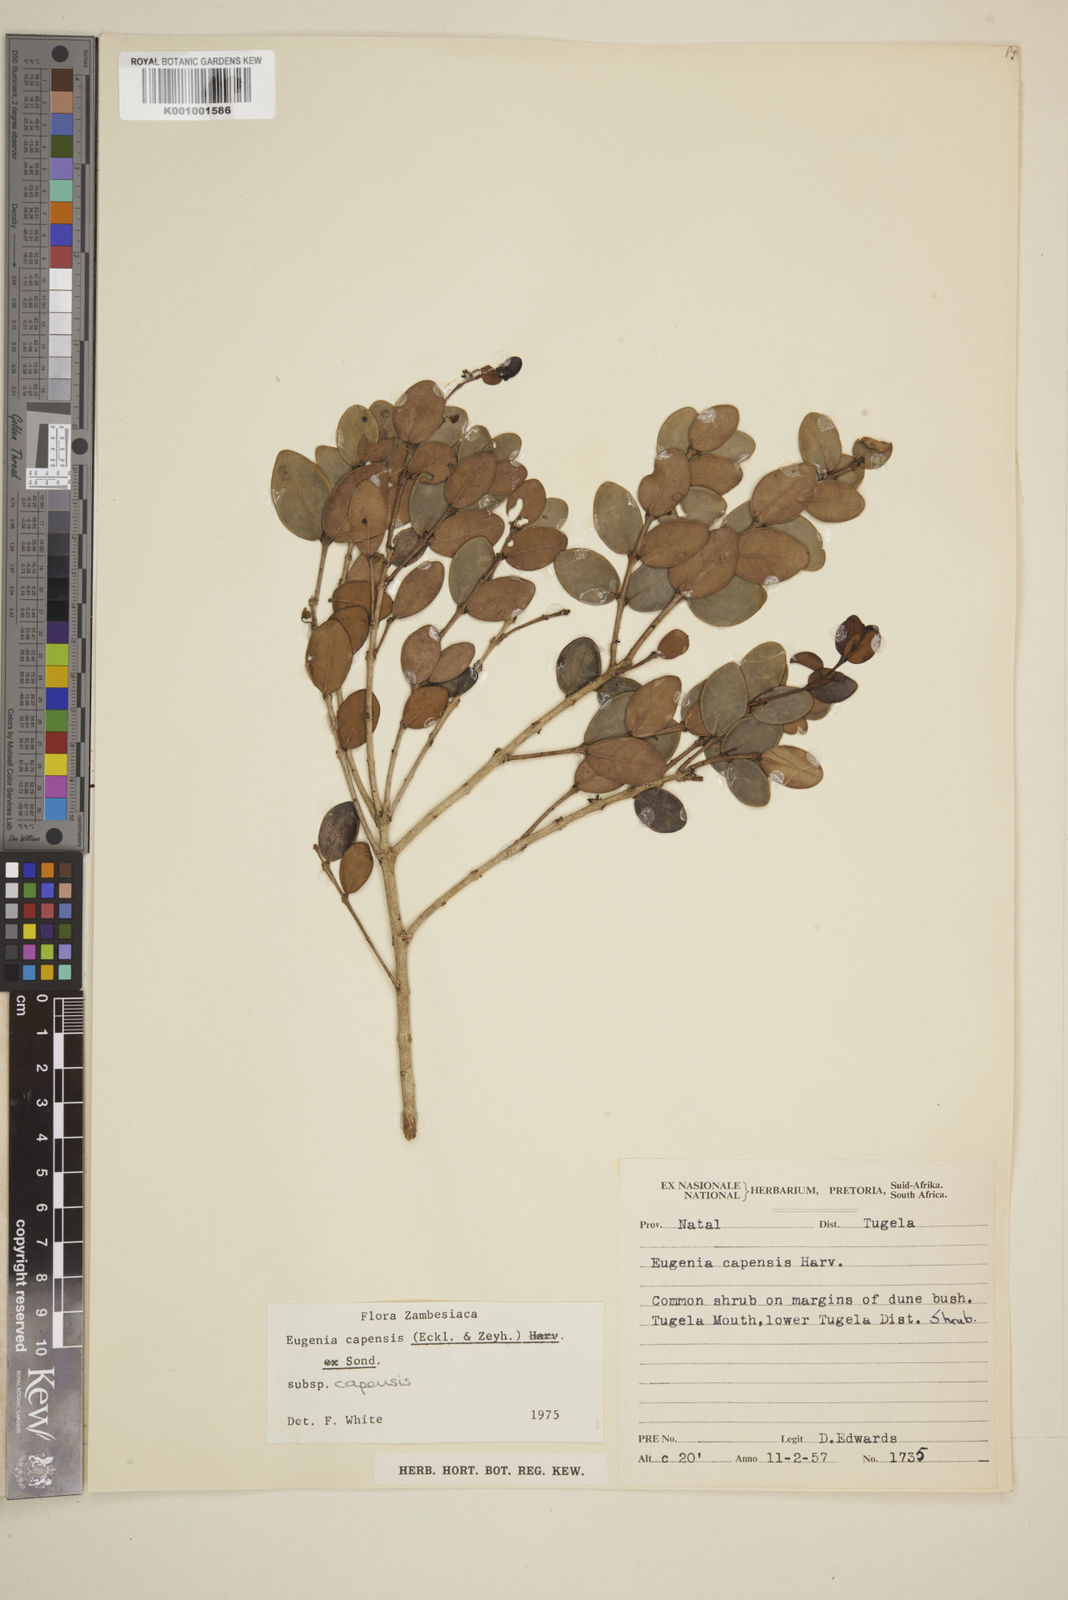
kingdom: Plantae
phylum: Tracheophyta
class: Magnoliopsida
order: Myrtales
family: Myrtaceae
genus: Eugenia
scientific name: Eugenia capensis
